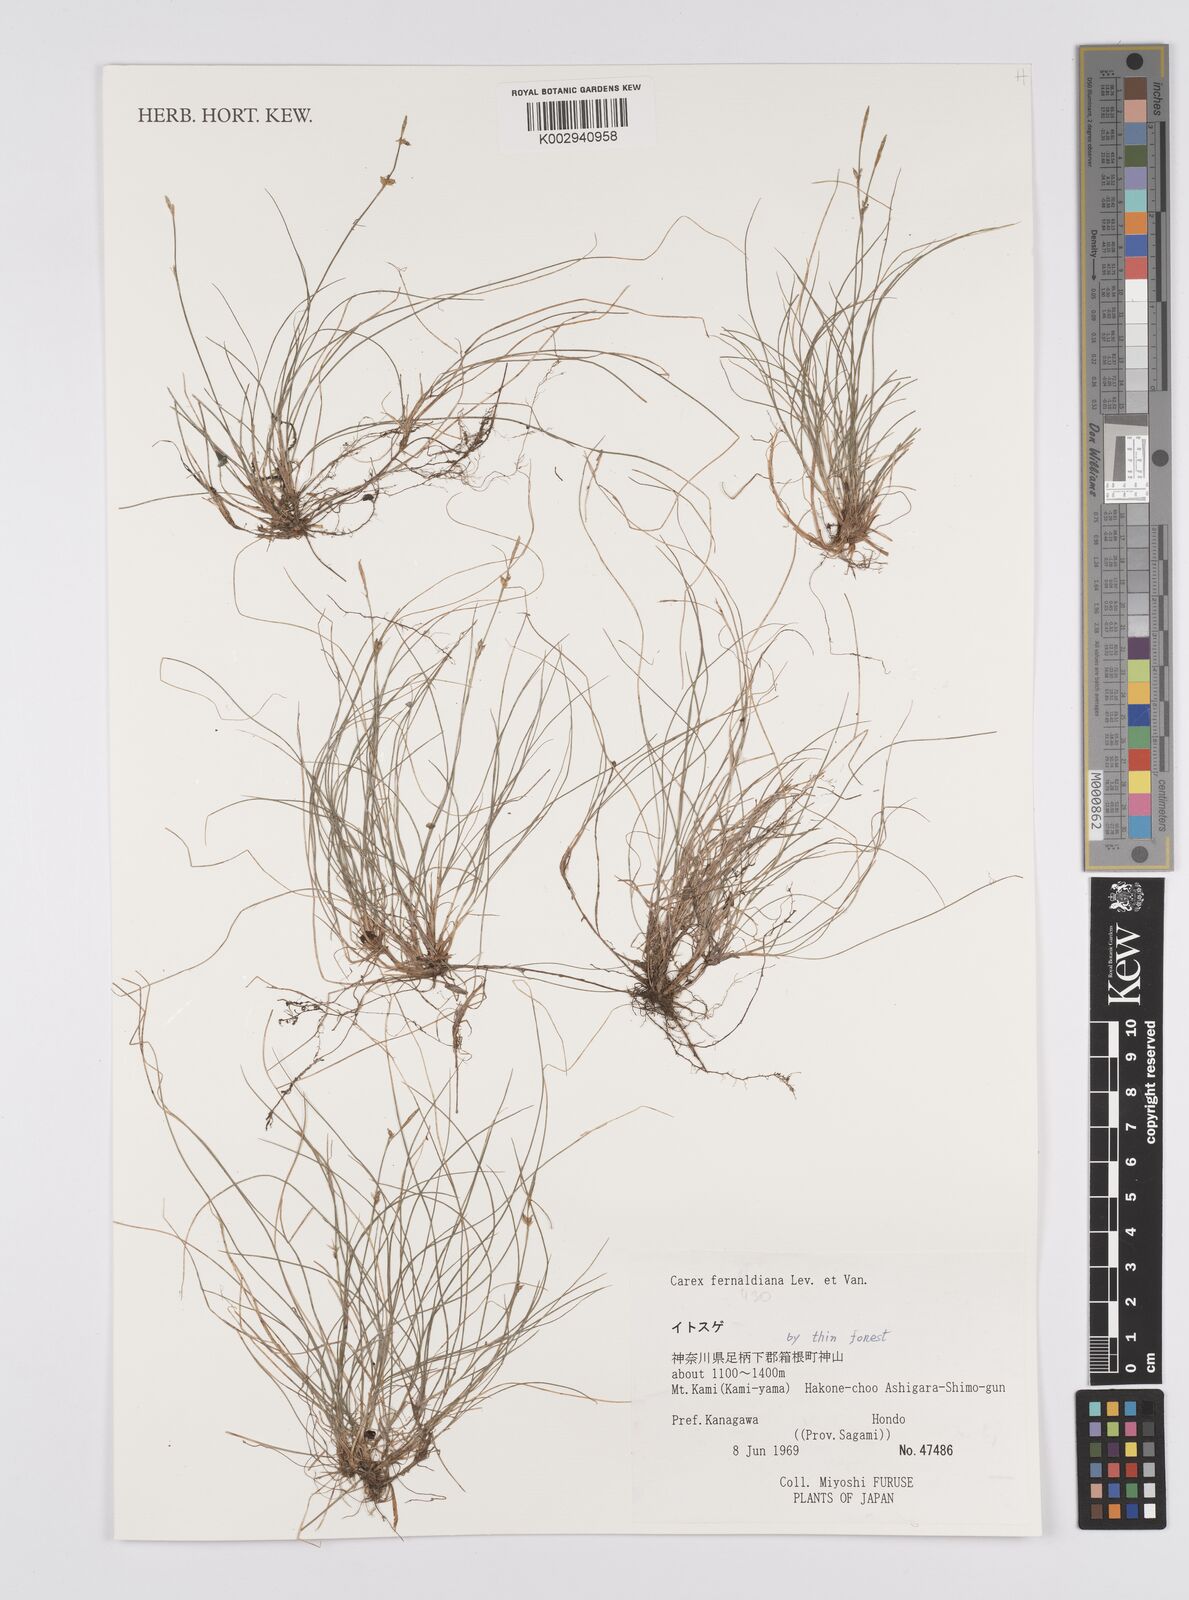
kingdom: Plantae
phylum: Tracheophyta
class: Liliopsida
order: Poales
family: Cyperaceae
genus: Carex
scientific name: Carex fibrillosa
